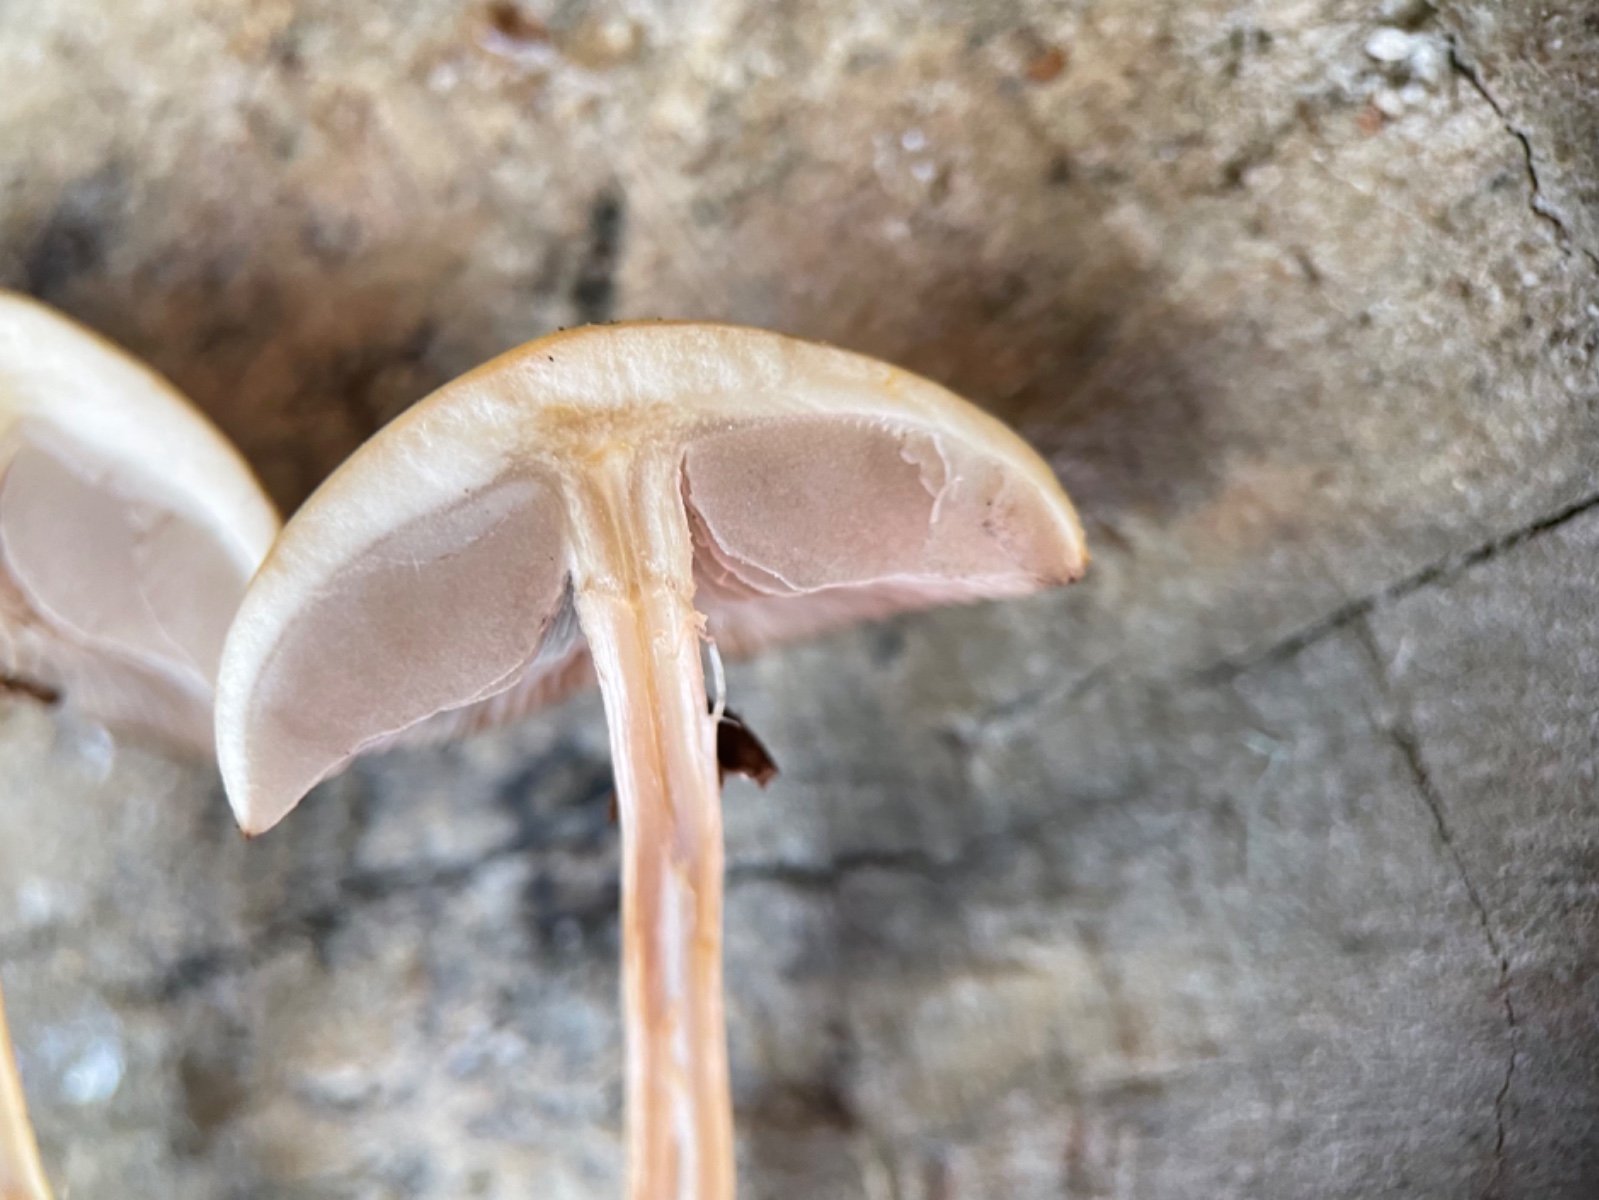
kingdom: Fungi
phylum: Basidiomycota
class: Agaricomycetes
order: Agaricales
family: Strophariaceae
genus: Agrocybe
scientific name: Agrocybe
